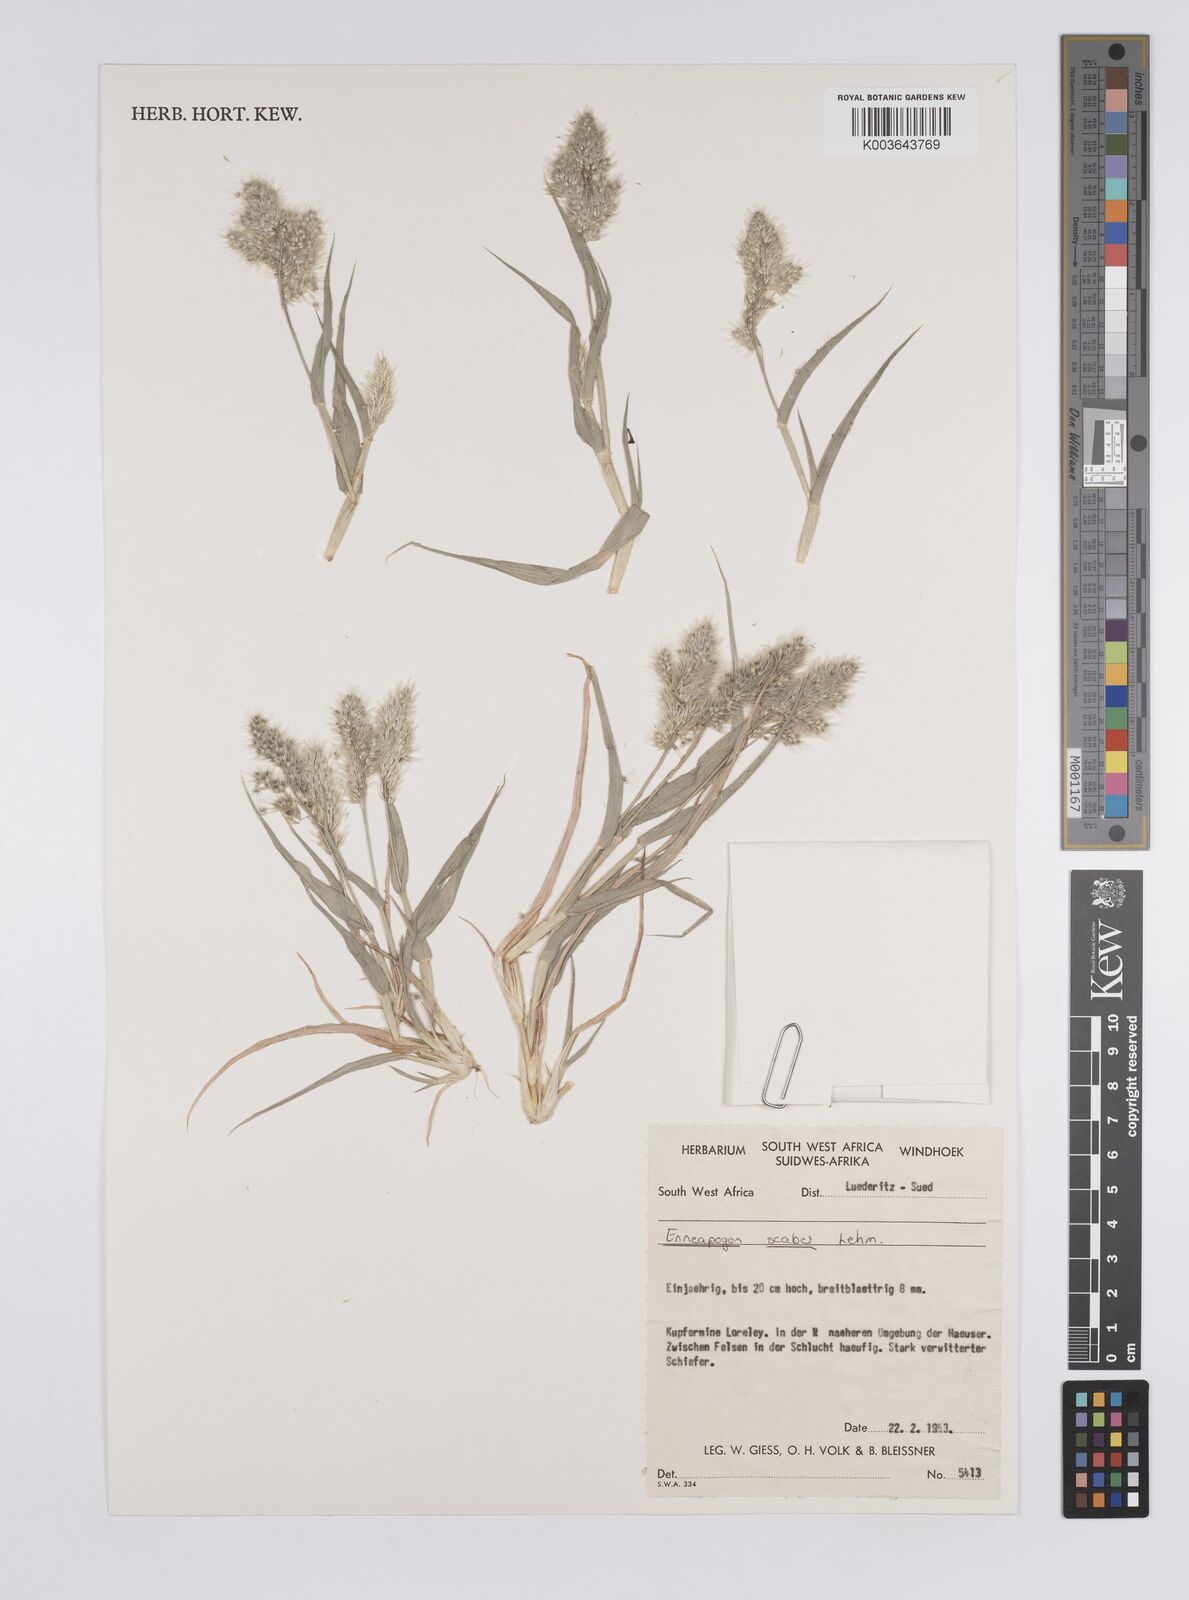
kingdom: Plantae
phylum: Tracheophyta
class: Liliopsida
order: Poales
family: Poaceae
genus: Enneapogon
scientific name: Enneapogon scaber
